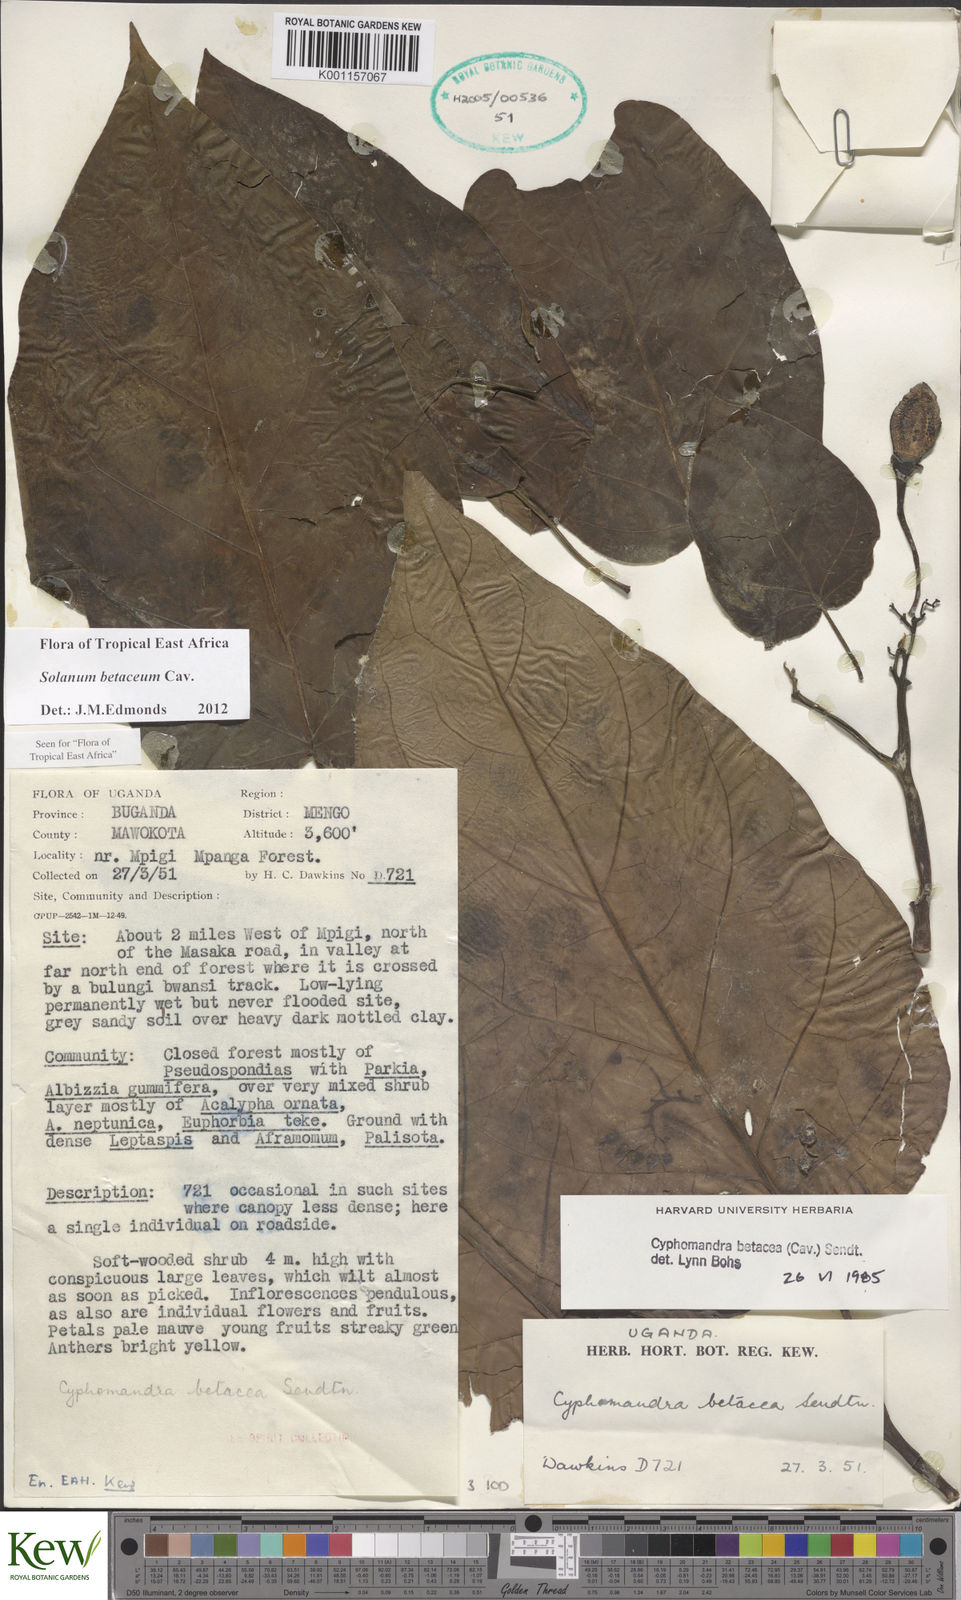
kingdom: Plantae
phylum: Tracheophyta
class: Magnoliopsida
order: Solanales
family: Solanaceae
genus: Solanum
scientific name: Solanum betaceum
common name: Tamarillo
